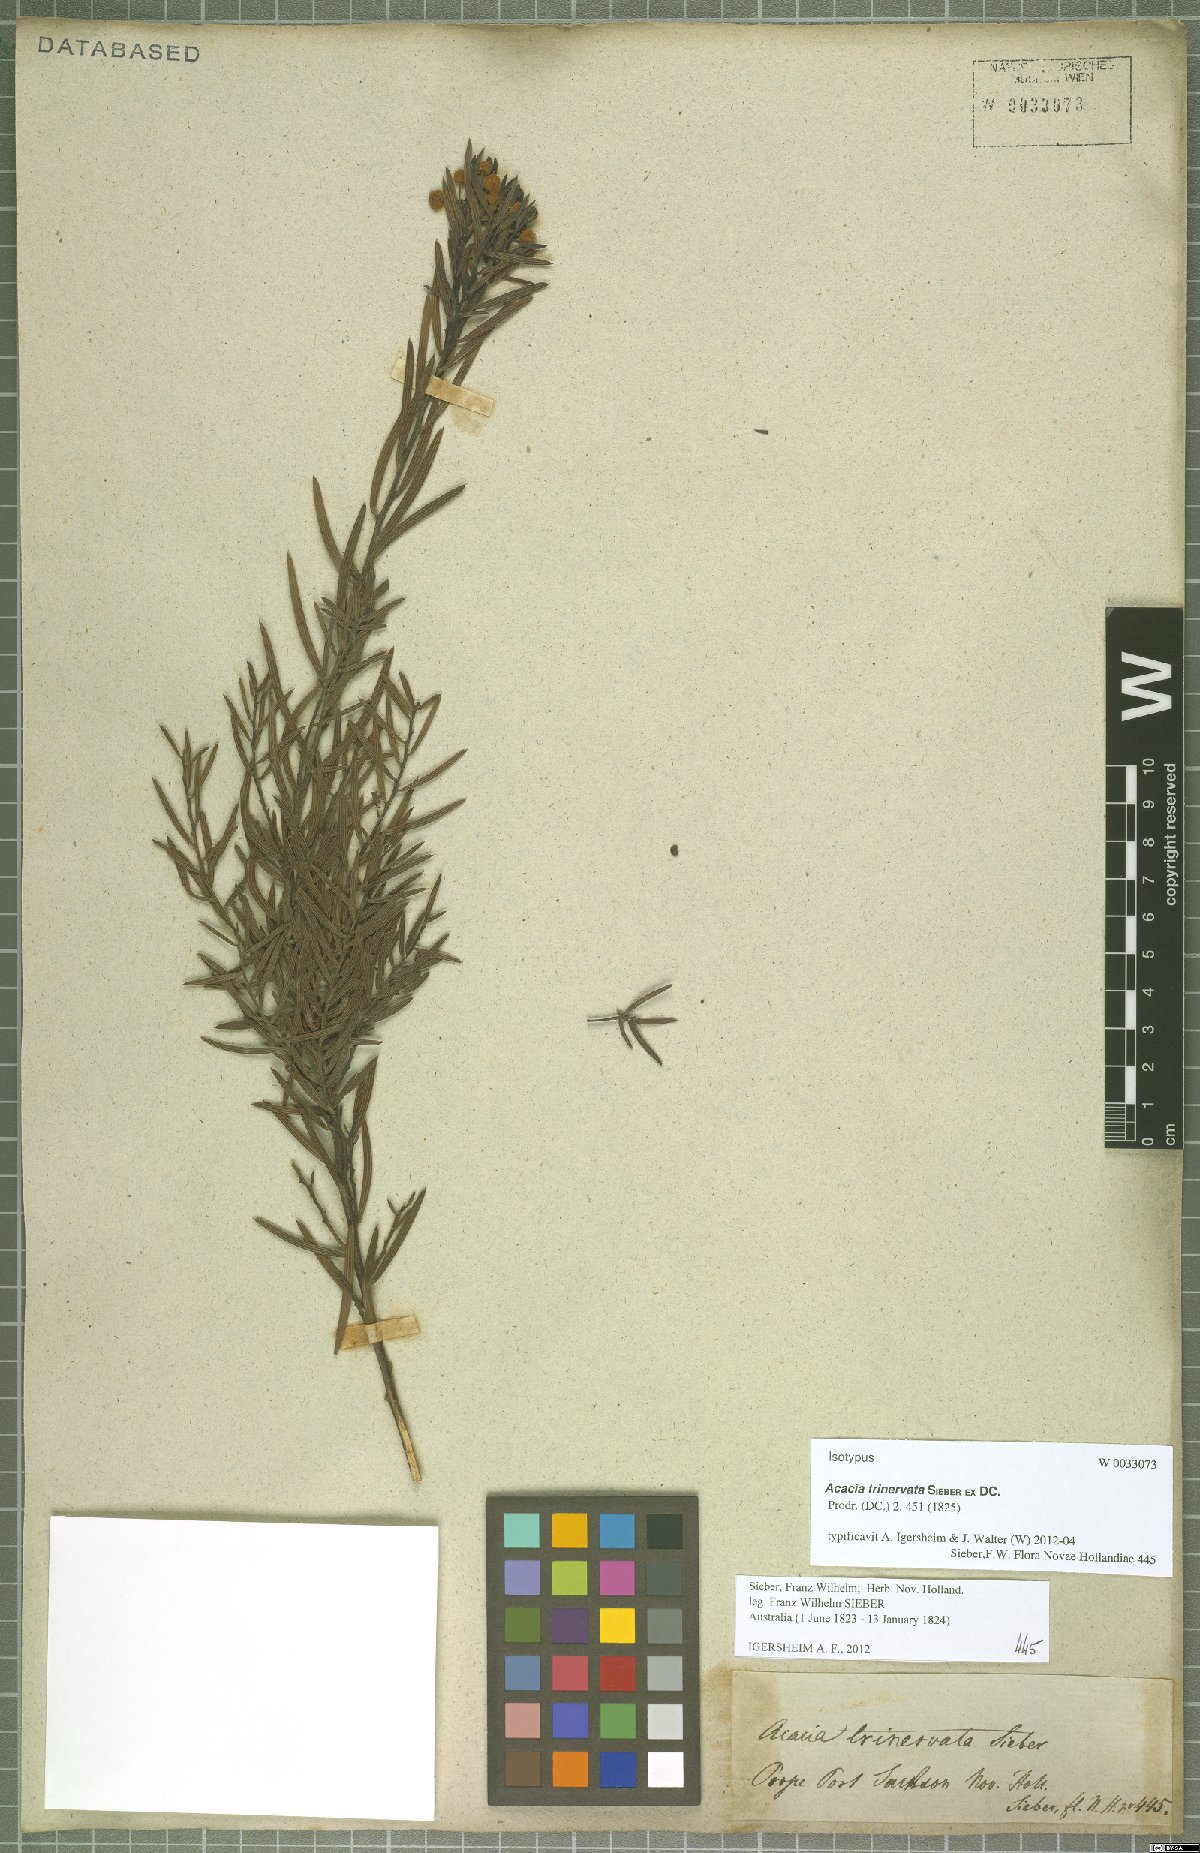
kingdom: Plantae
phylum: Tracheophyta
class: Magnoliopsida
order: Fabales
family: Fabaceae
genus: Acacia
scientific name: Acacia trinervata
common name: Three-nerve wattle
